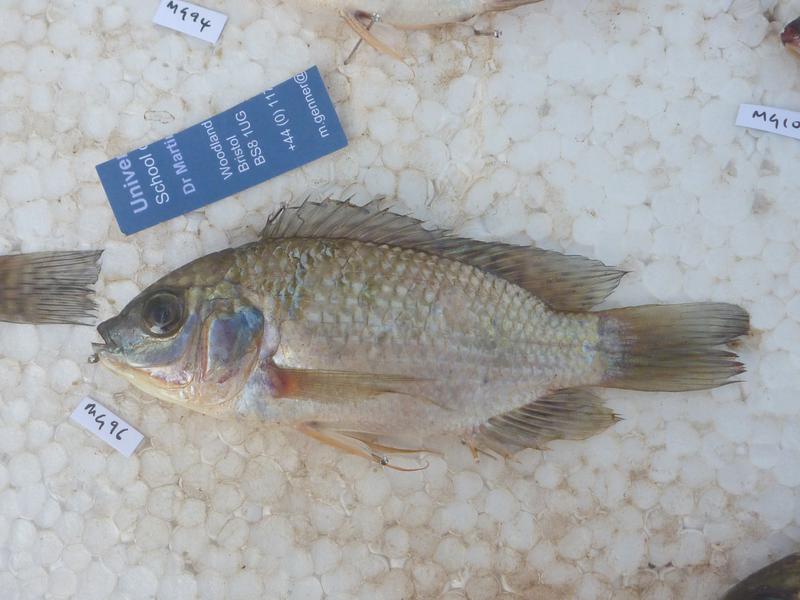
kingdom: Animalia
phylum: Chordata
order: Perciformes
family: Cichlidae
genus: Oreochromis
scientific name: Oreochromis leucostictus
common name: Blue spotted tilapia
